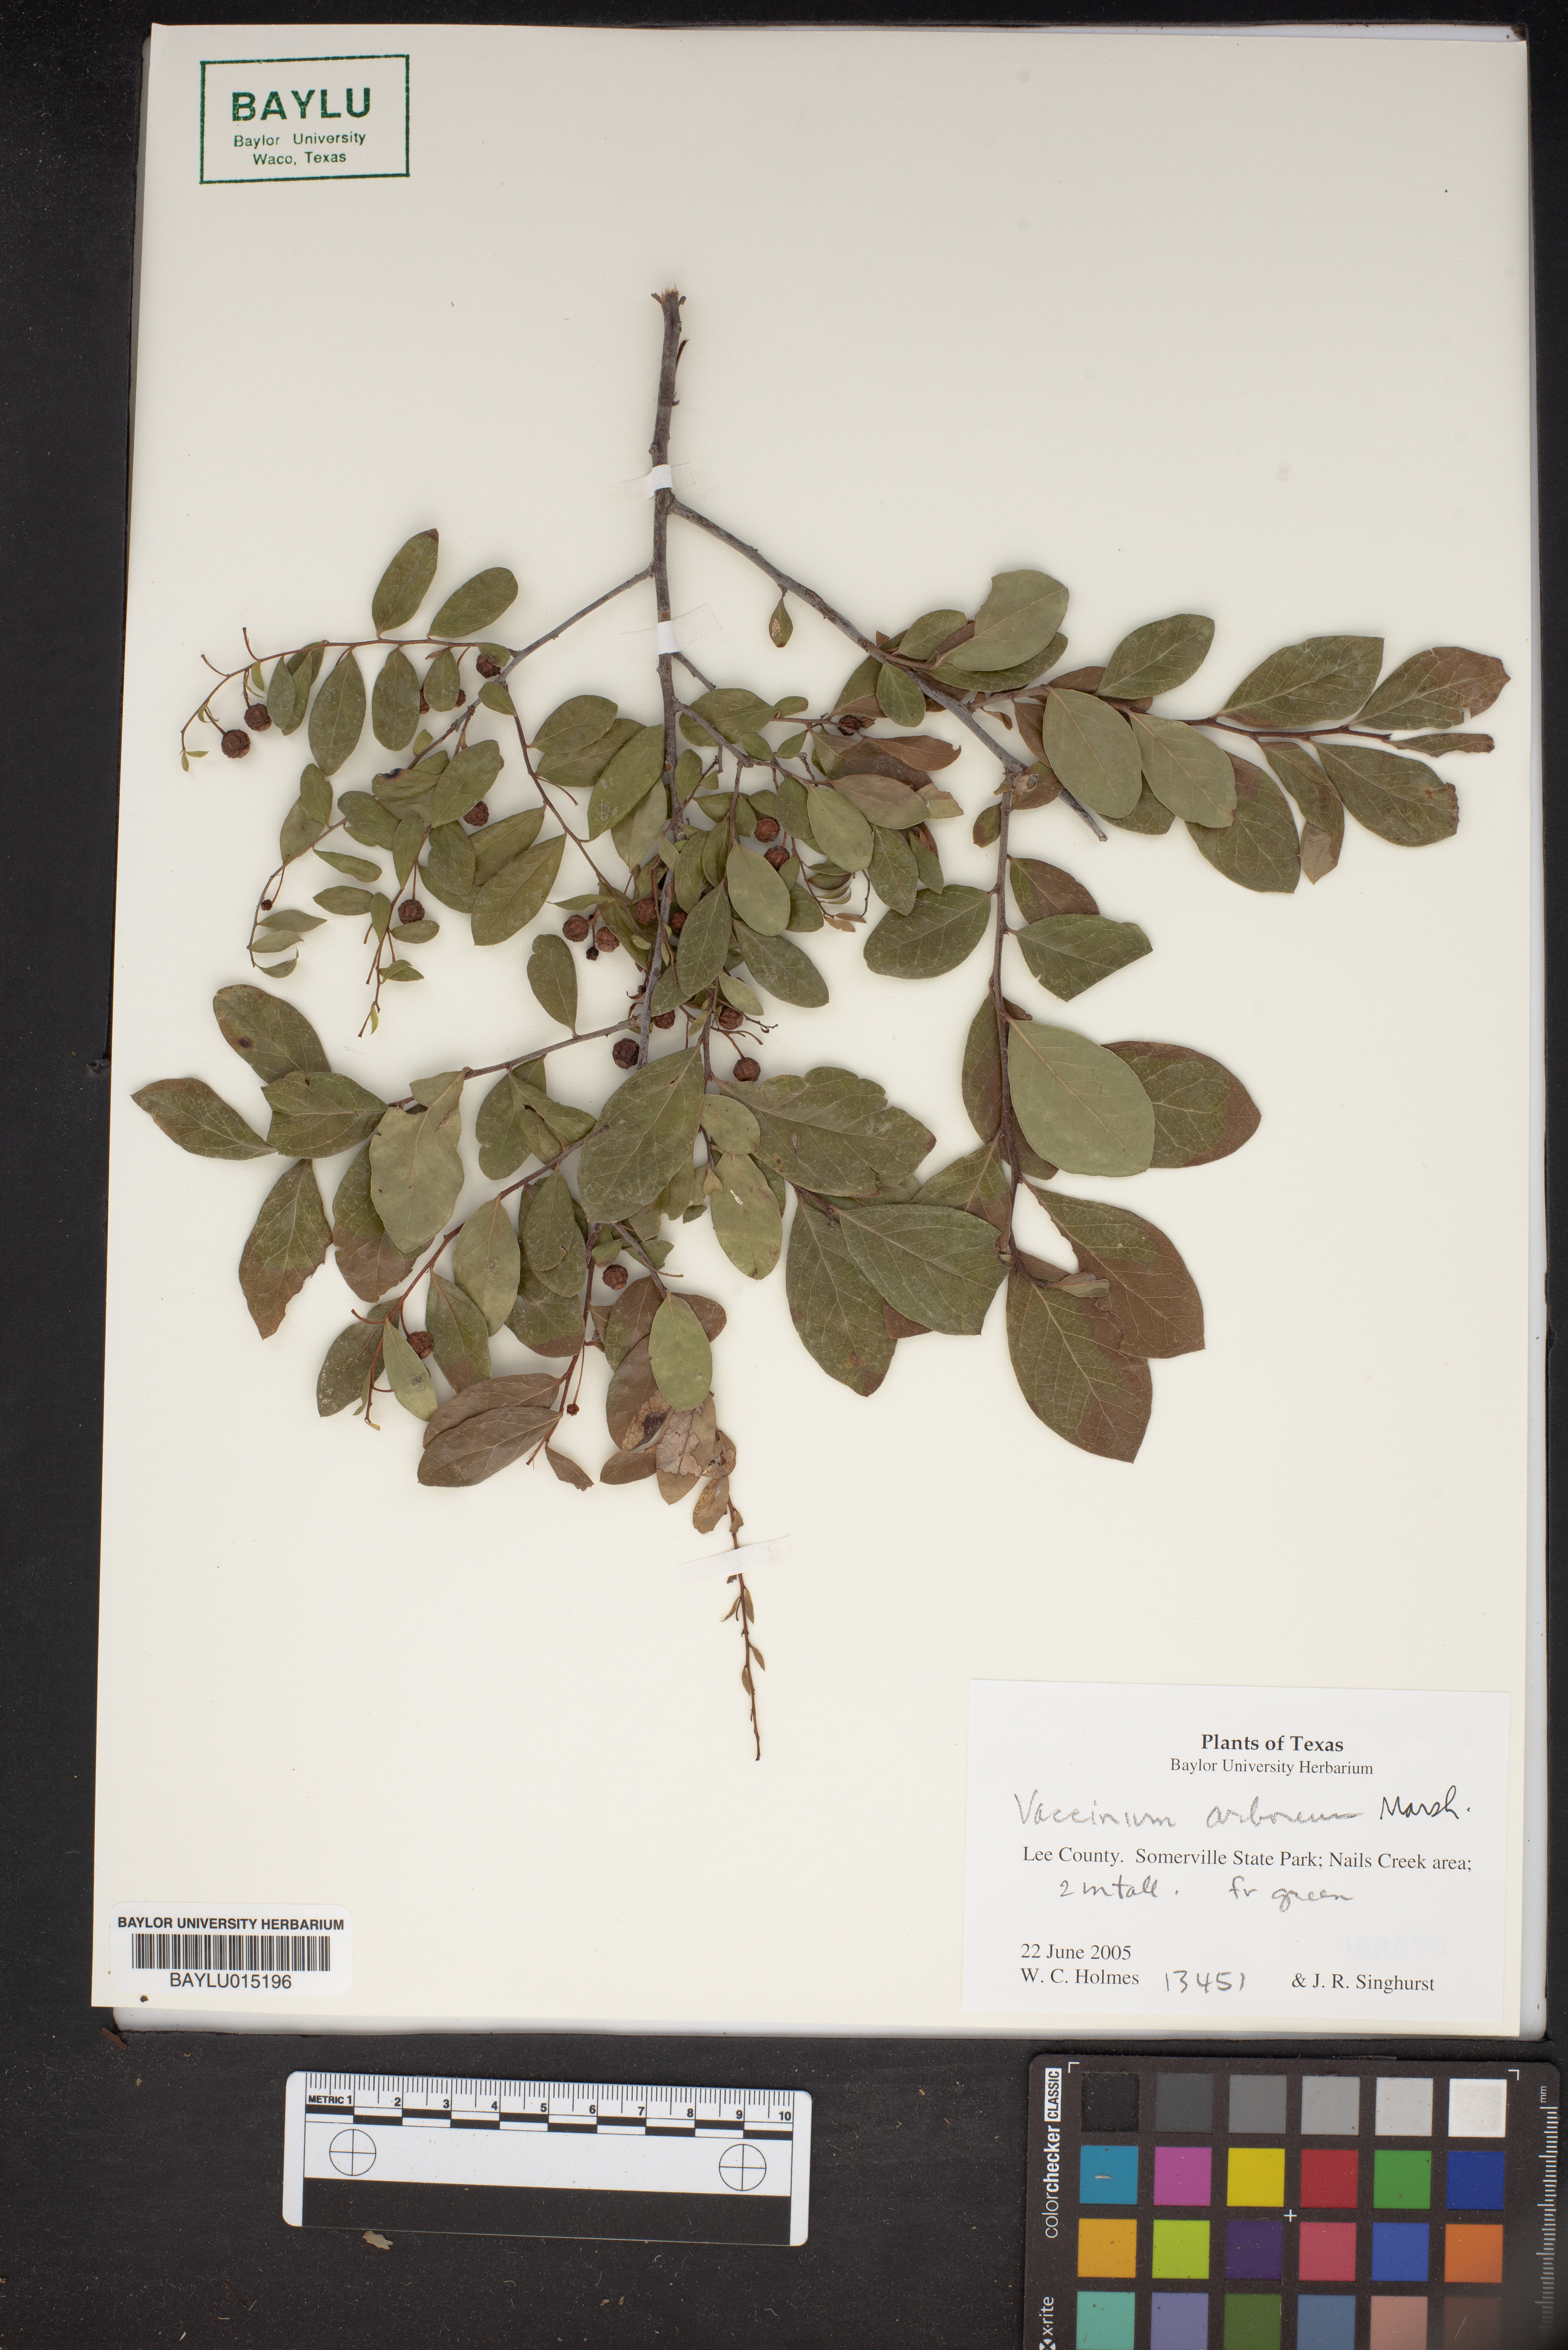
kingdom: Plantae
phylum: Tracheophyta
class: Magnoliopsida
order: Ericales
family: Ericaceae
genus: Vaccinium
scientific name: Vaccinium arboreum
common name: Farkleberry
